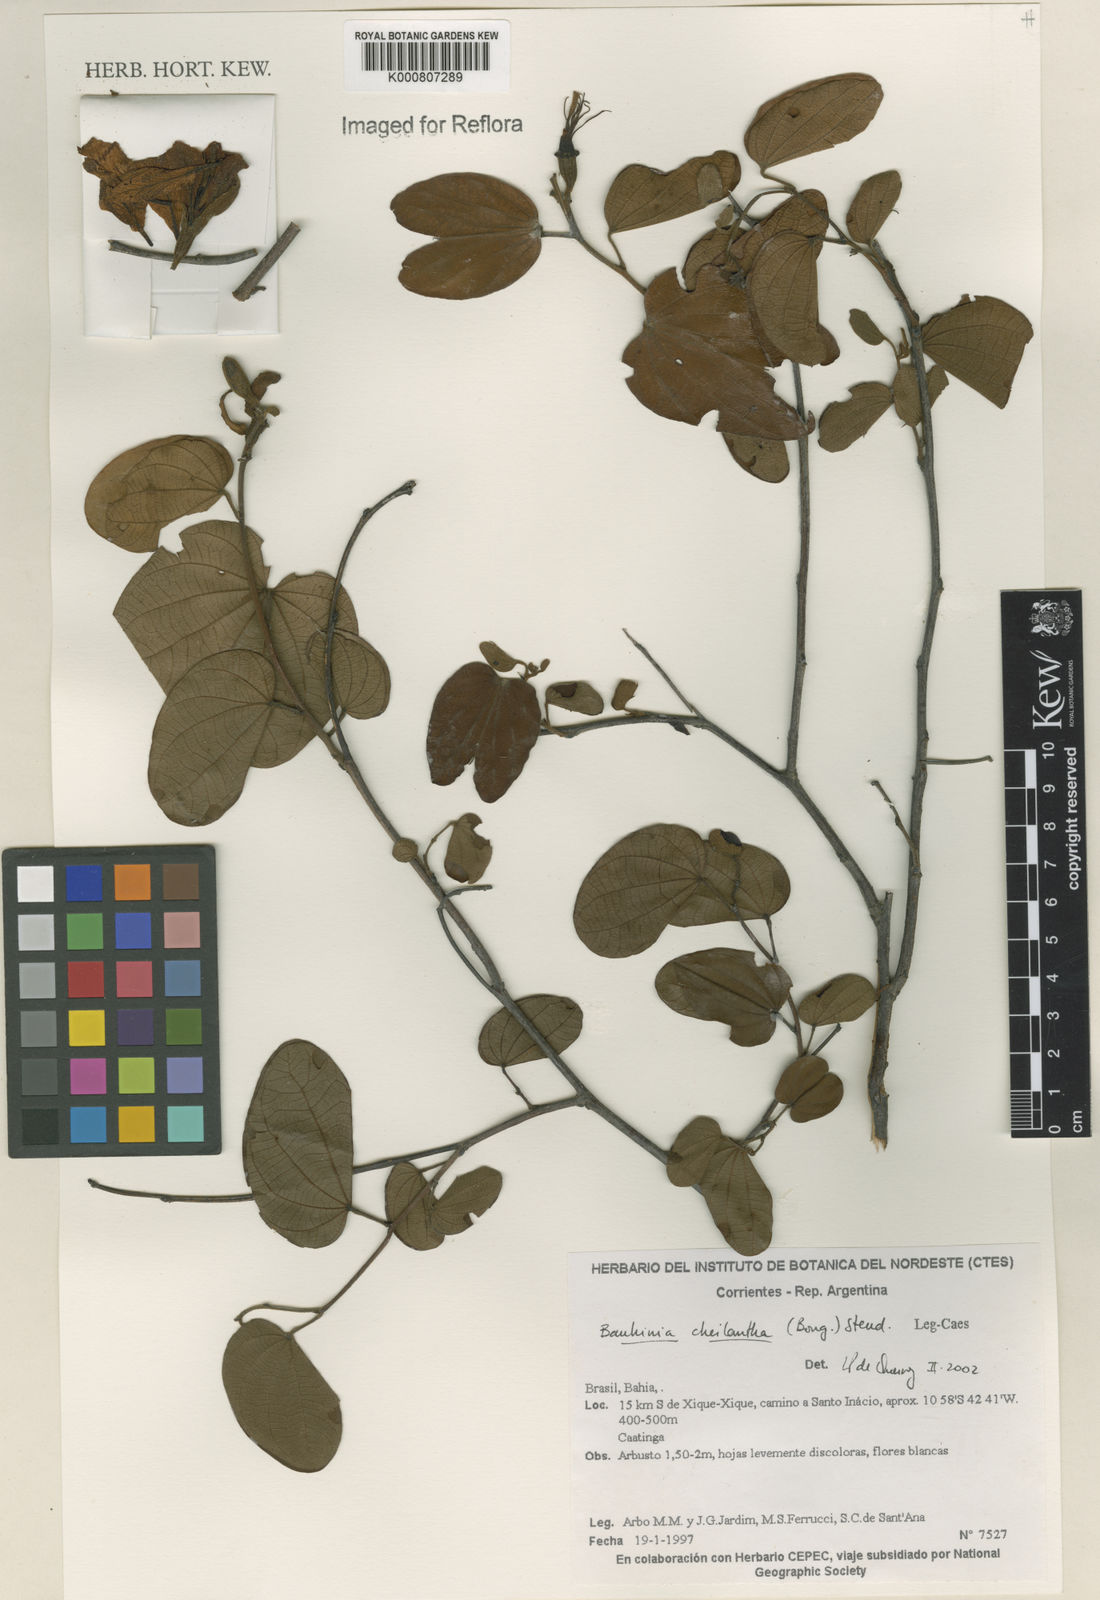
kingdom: Plantae
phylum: Tracheophyta
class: Magnoliopsida
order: Fabales
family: Fabaceae
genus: Bauhinia
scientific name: Bauhinia cheilantha
